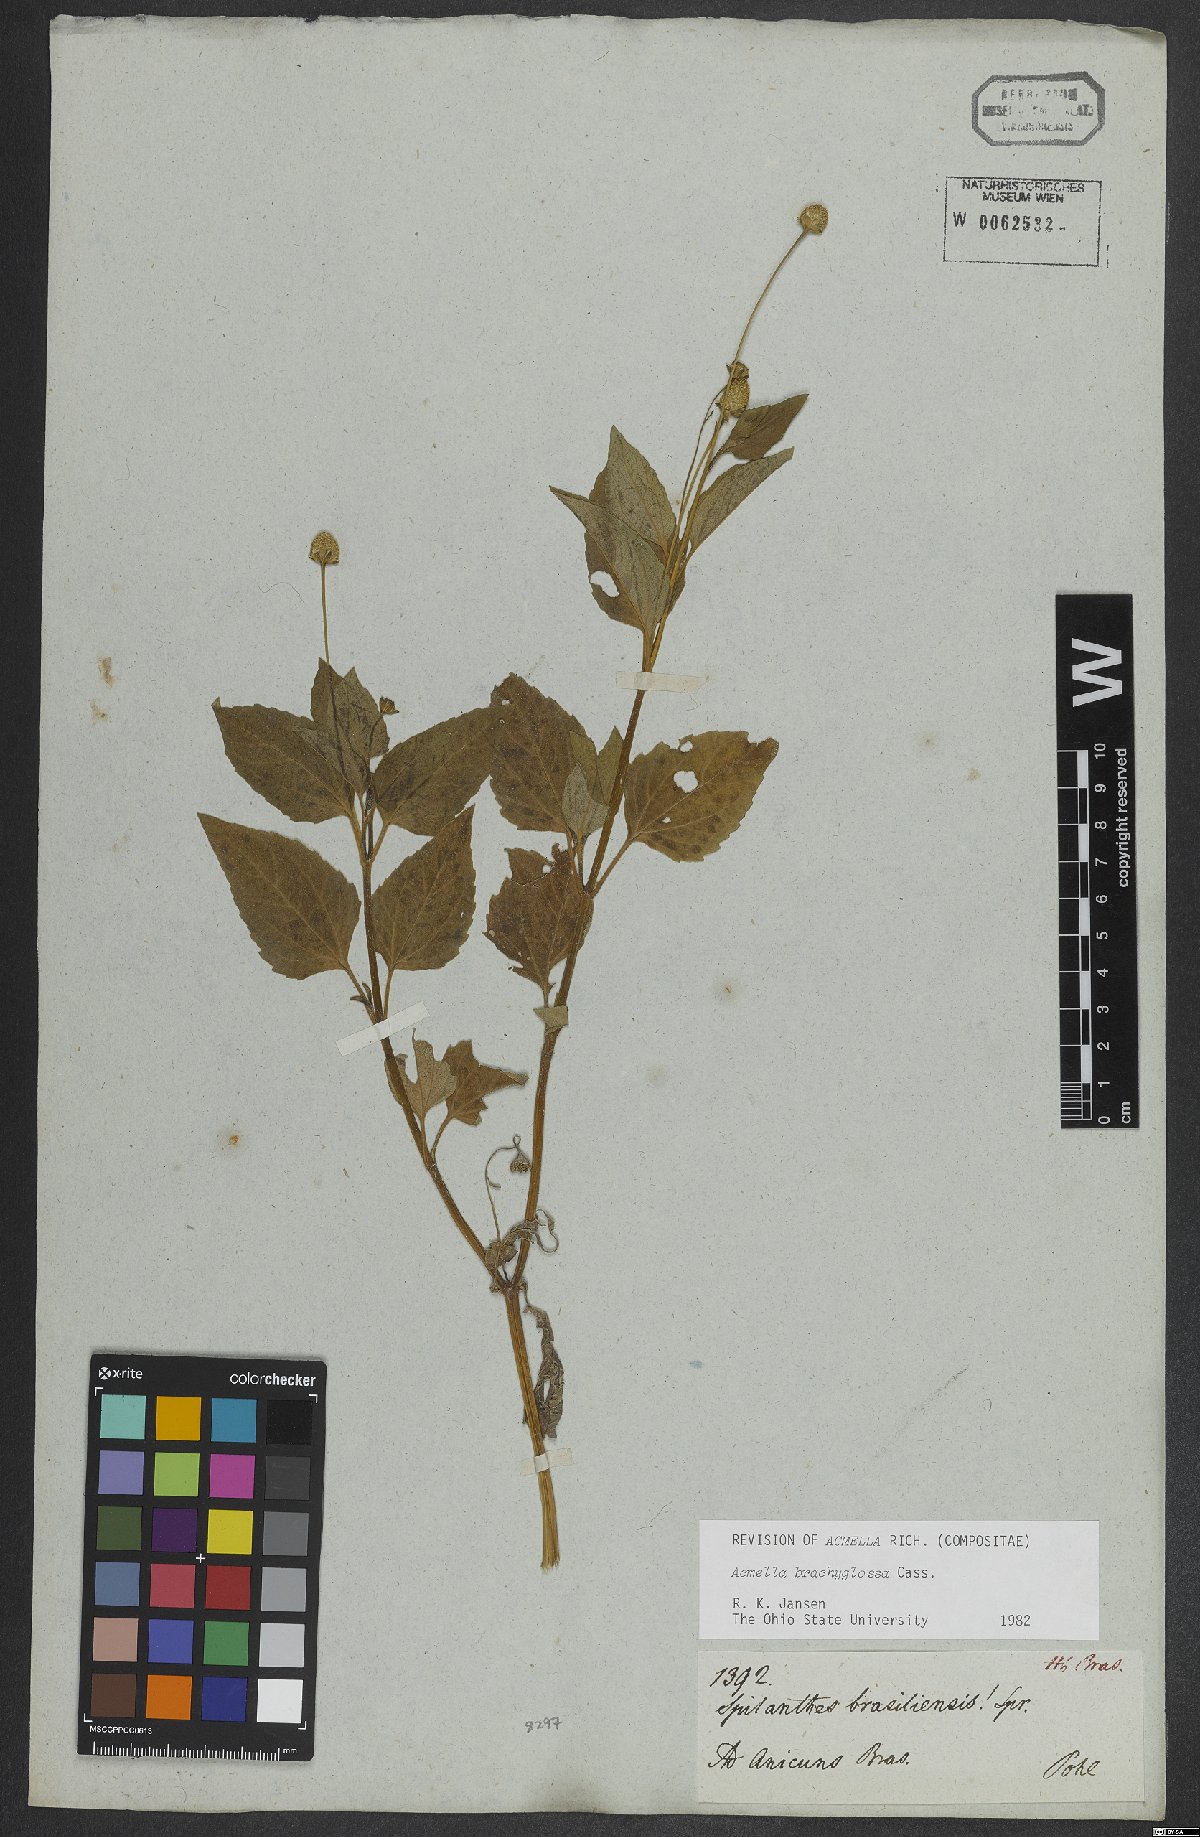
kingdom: Plantae
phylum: Tracheophyta
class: Magnoliopsida
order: Asterales
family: Asteraceae
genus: Acmella
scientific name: Acmella brachyglossa
